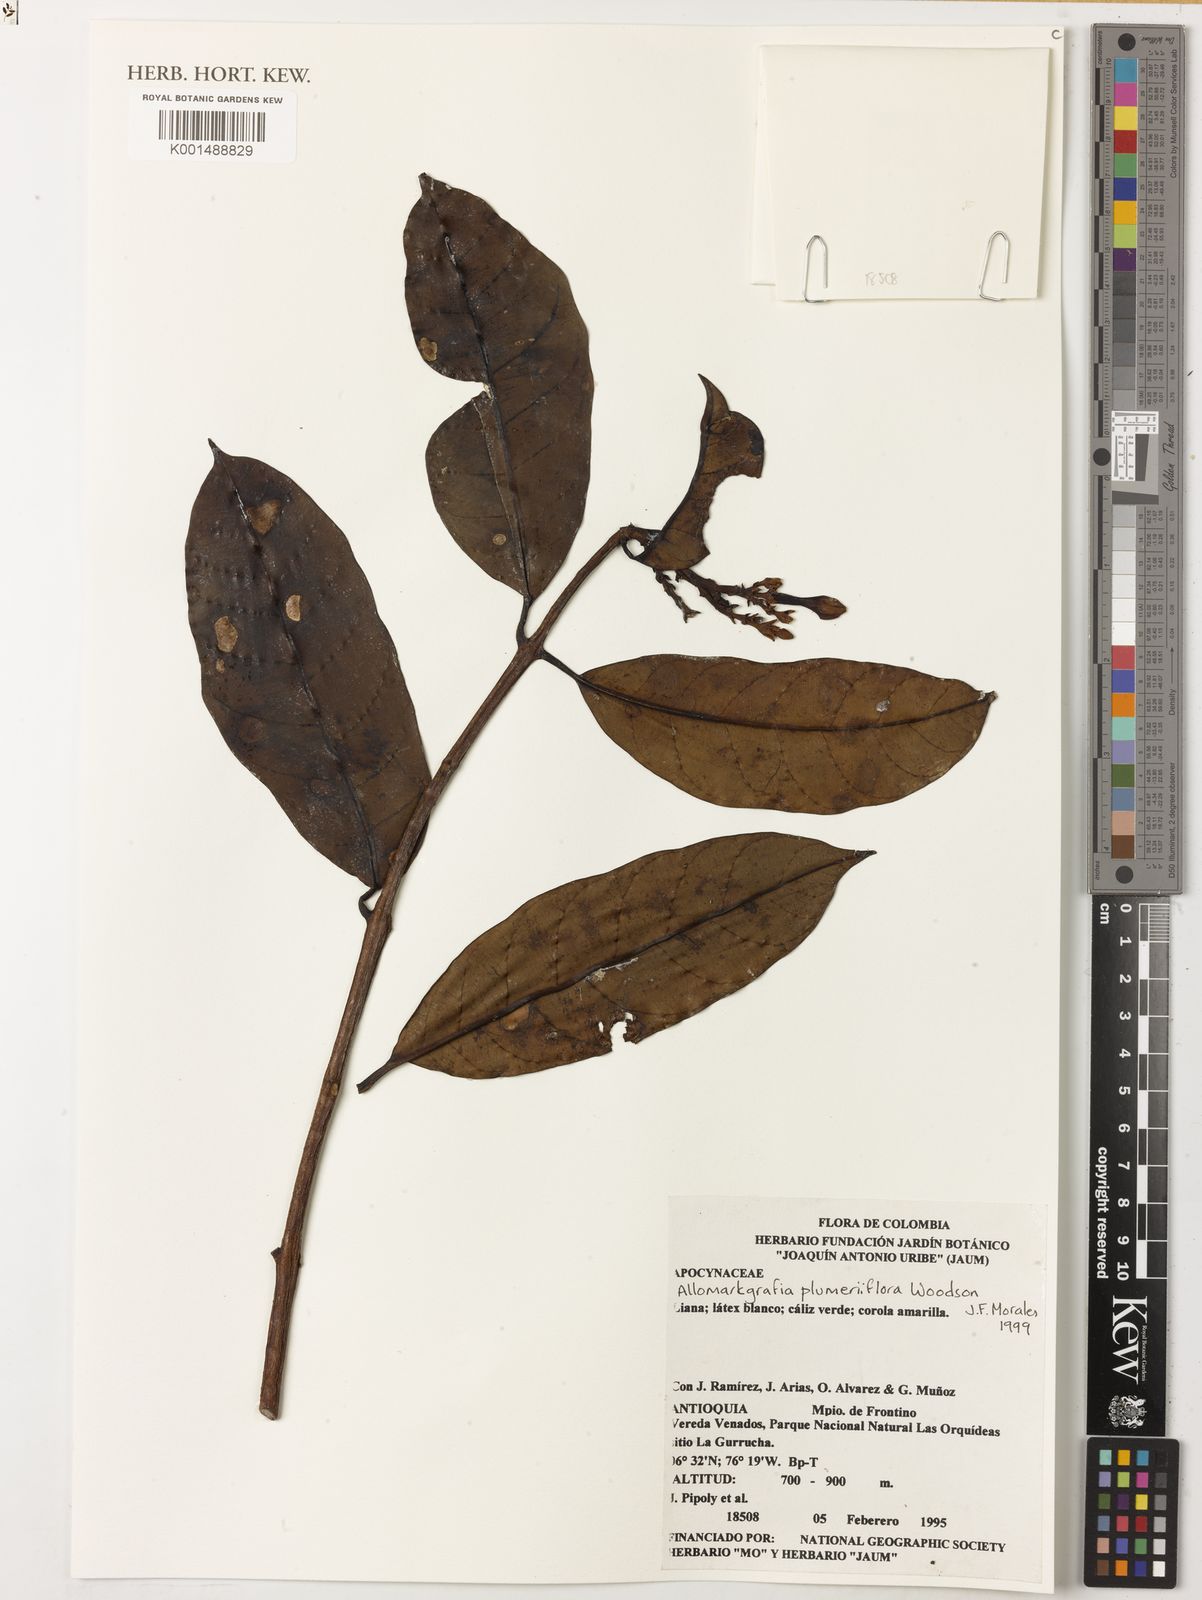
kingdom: Plantae
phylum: Tracheophyta
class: Magnoliopsida
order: Gentianales
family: Apocynaceae
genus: Allomarkgrafia
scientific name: Allomarkgrafia plumeriiflora
